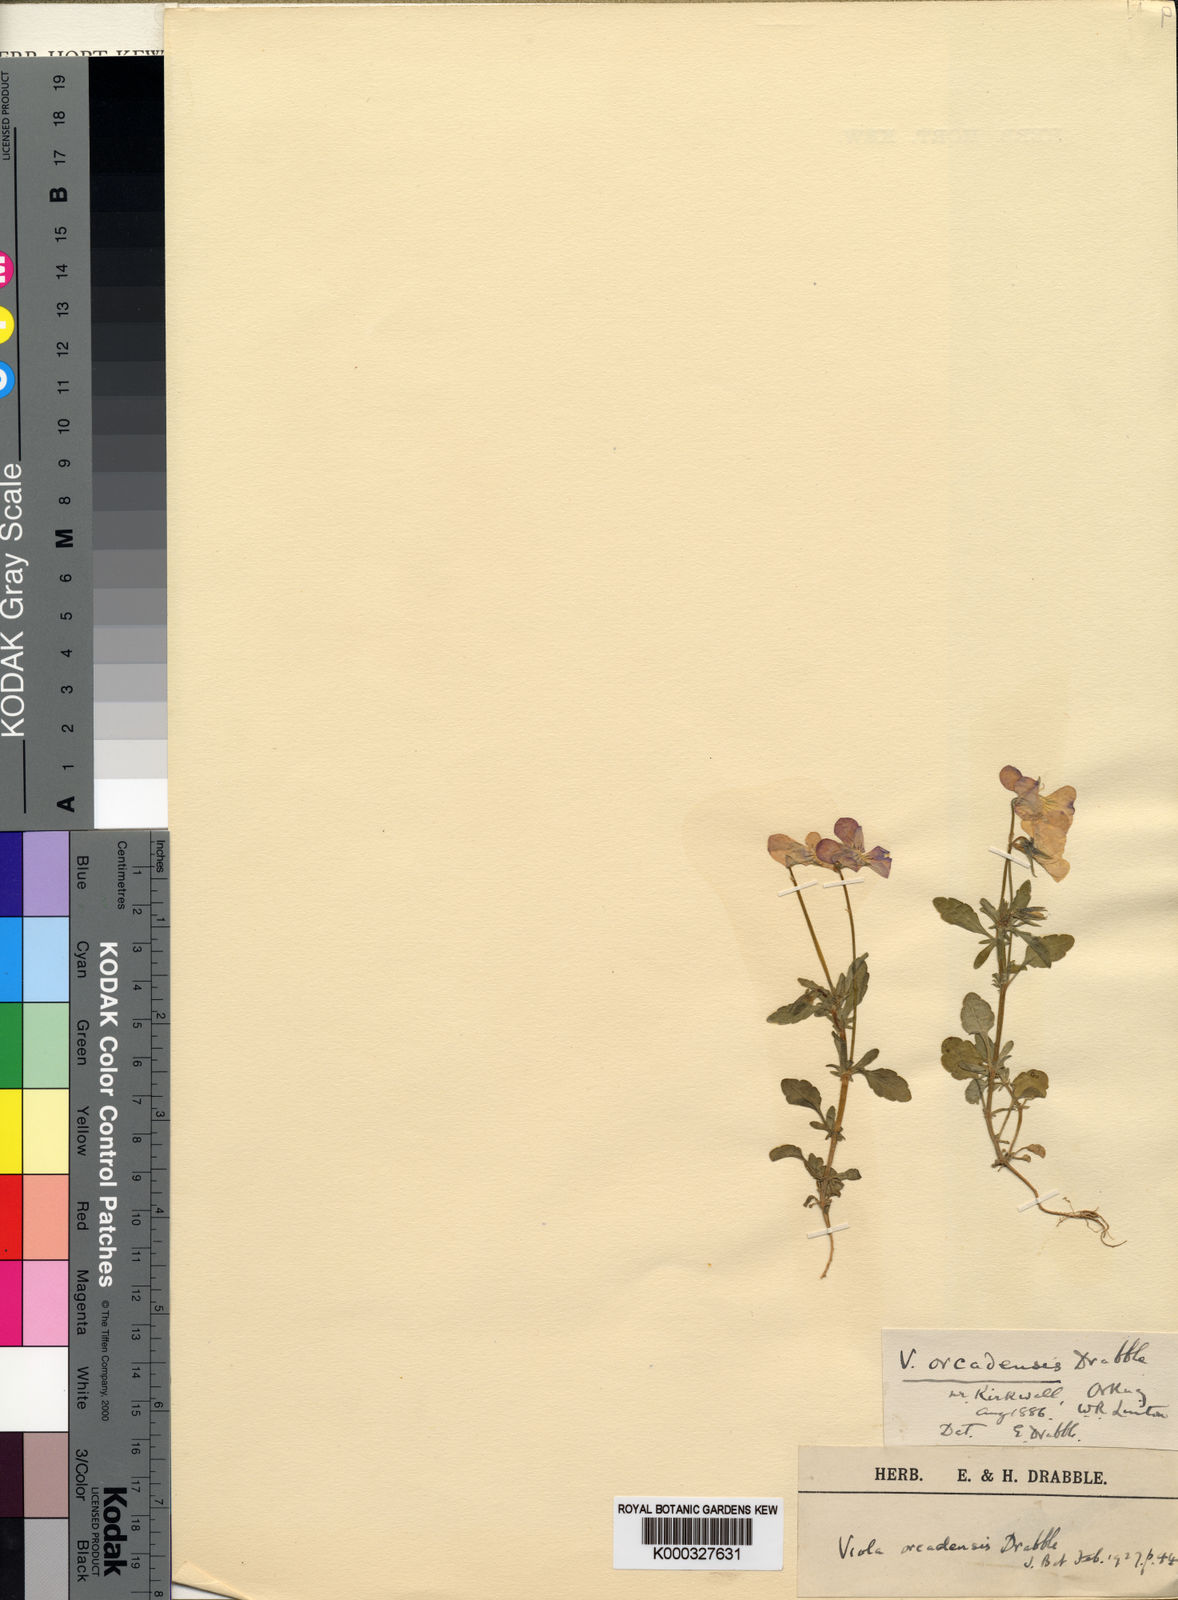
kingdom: Plantae
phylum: Tracheophyta
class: Magnoliopsida
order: Malpighiales
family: Violaceae
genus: Viola
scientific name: Viola tricolor
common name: Pansy
